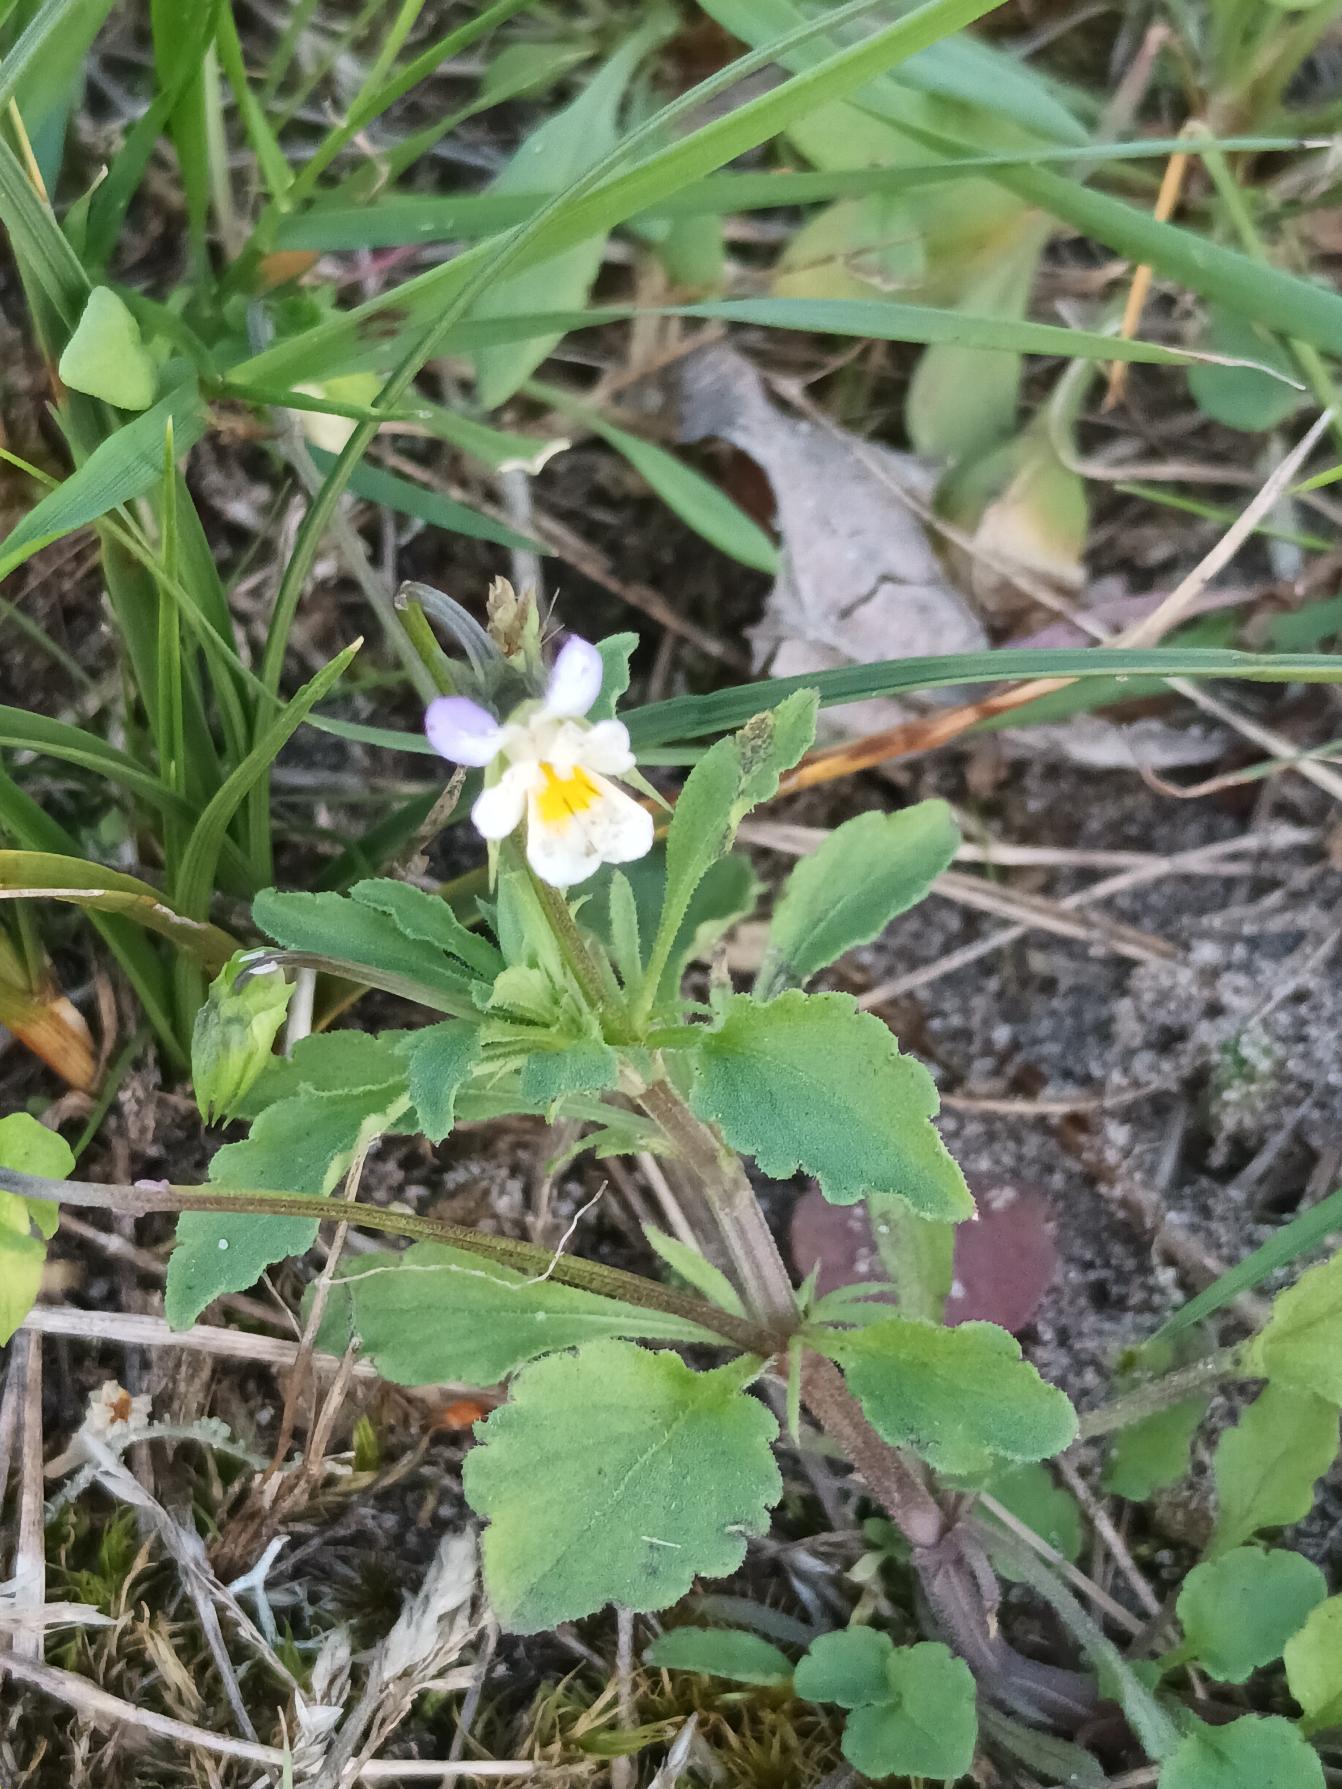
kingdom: Plantae
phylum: Tracheophyta
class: Magnoliopsida
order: Malpighiales
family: Violaceae
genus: Viola
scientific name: Viola arvensis
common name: Ager-stedmoderblomst
